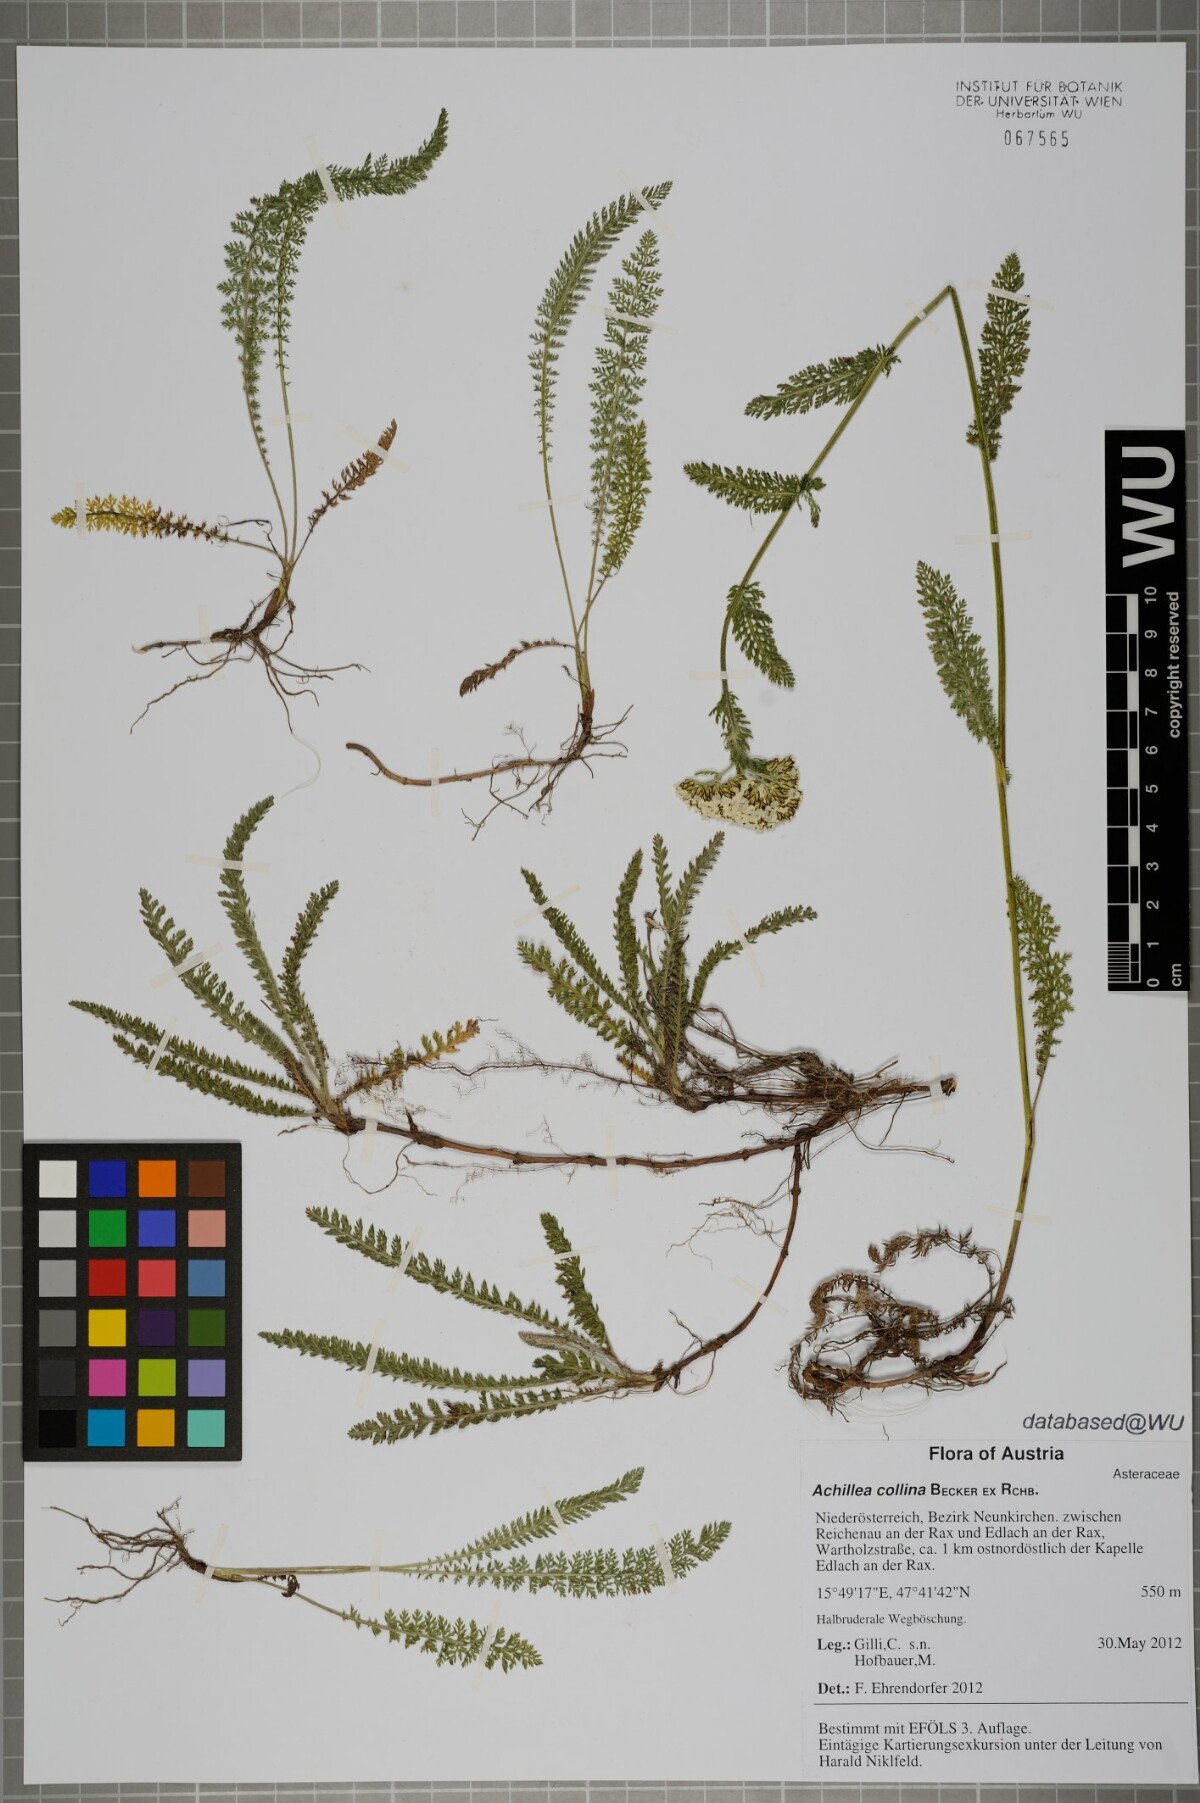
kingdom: Plantae
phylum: Tracheophyta
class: Magnoliopsida
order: Asterales
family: Asteraceae
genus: Achillea
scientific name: Achillea collina
